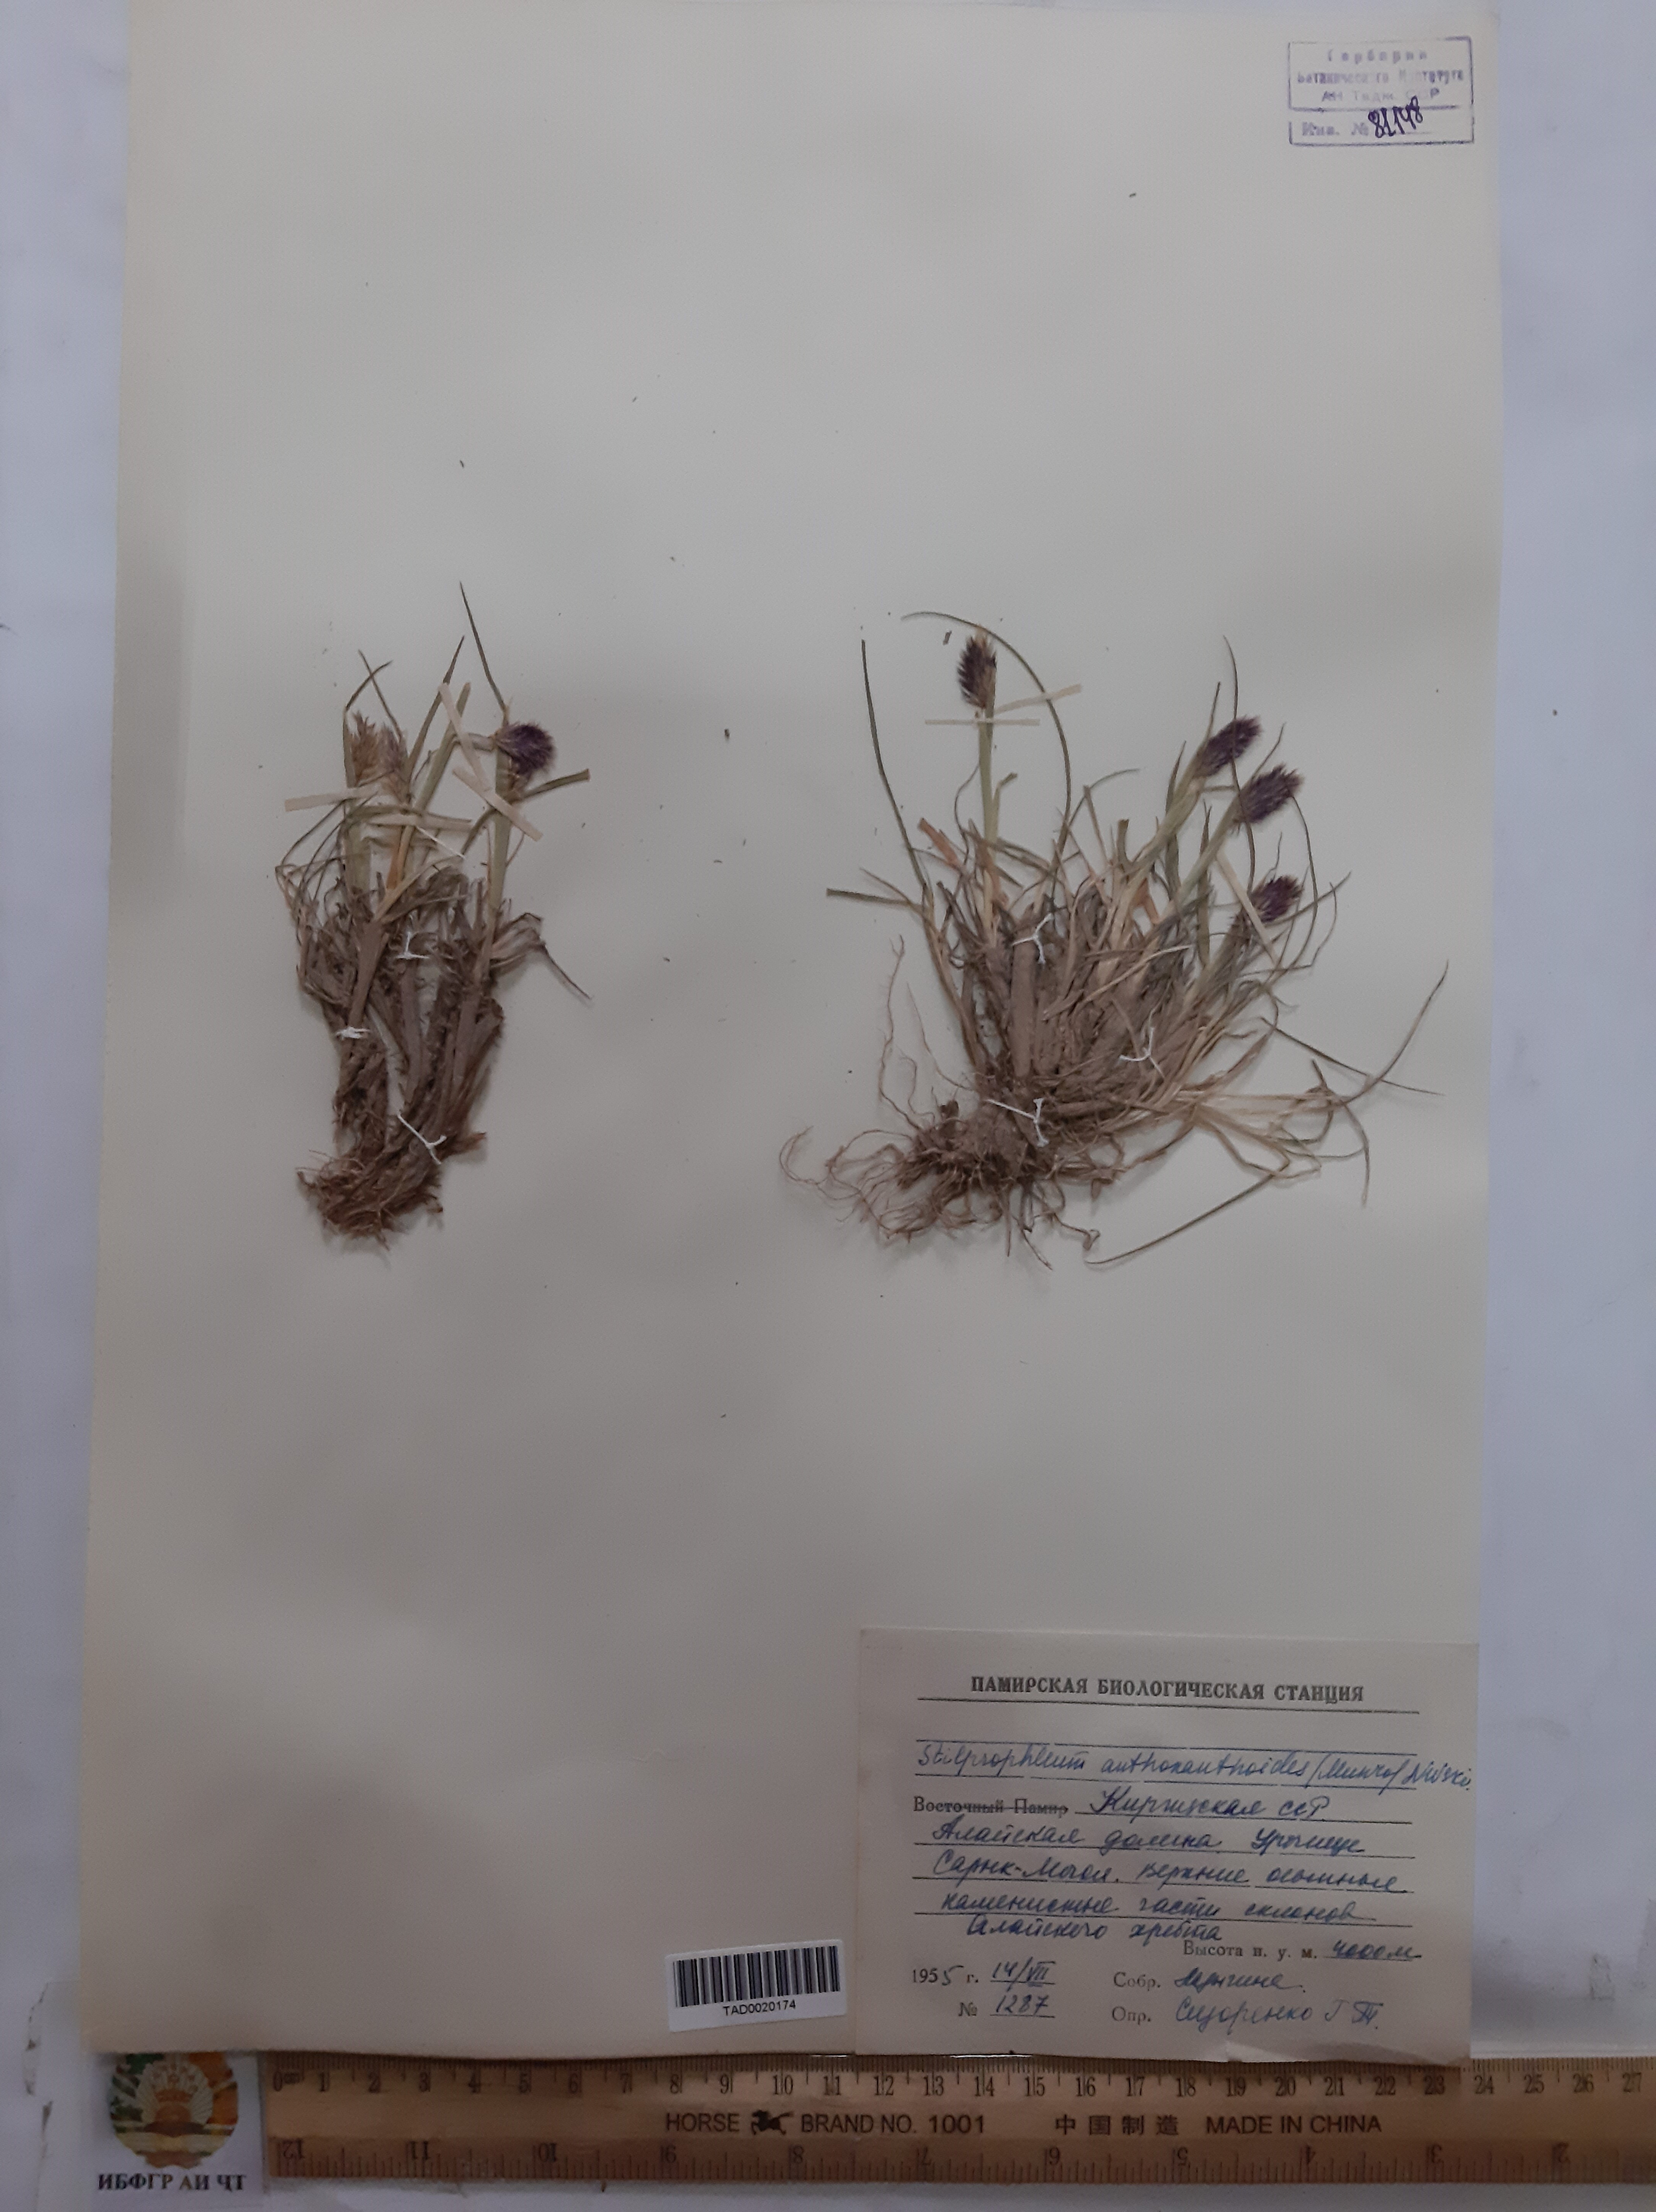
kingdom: Plantae
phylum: Tracheophyta
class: Liliopsida
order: Poales
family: Poaceae
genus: Calamagrostis
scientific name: Calamagrostis anthoxanthoides
